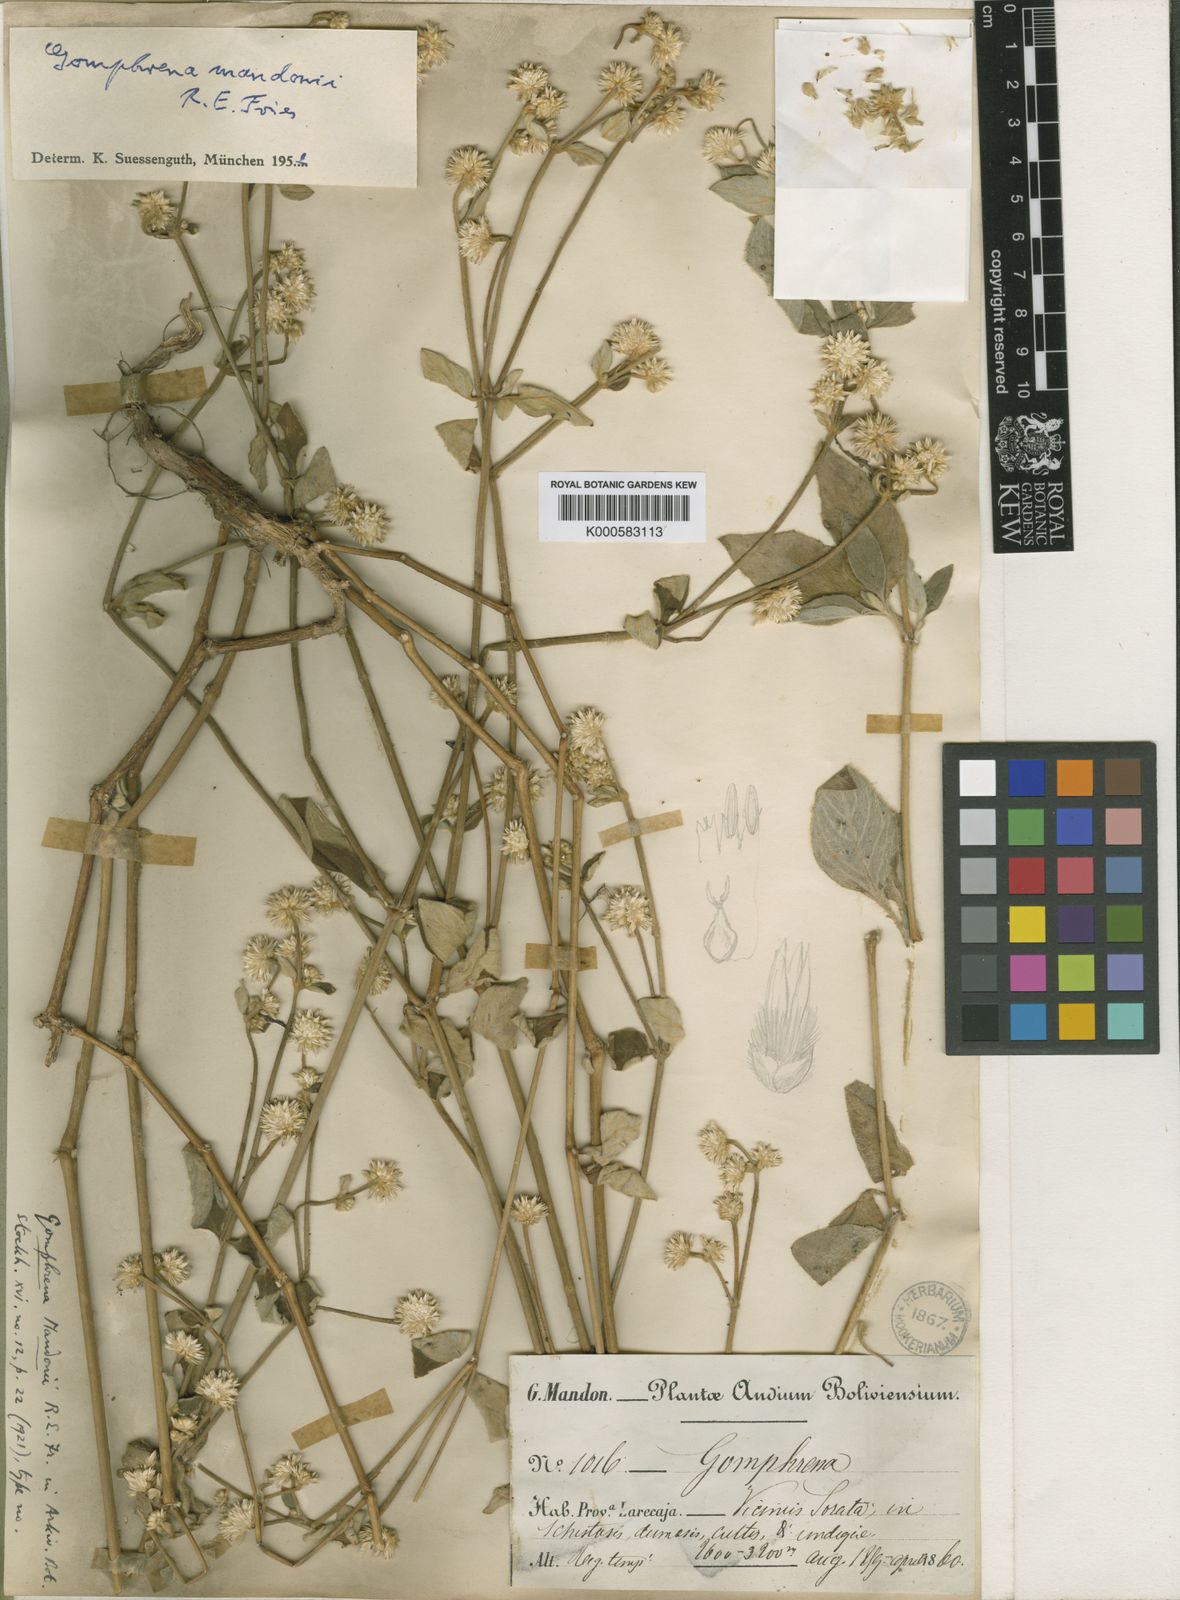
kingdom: Plantae
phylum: Tracheophyta
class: Magnoliopsida
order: Caryophyllales
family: Amaranthaceae
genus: Gomphrena
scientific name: Gomphrena mandonii
